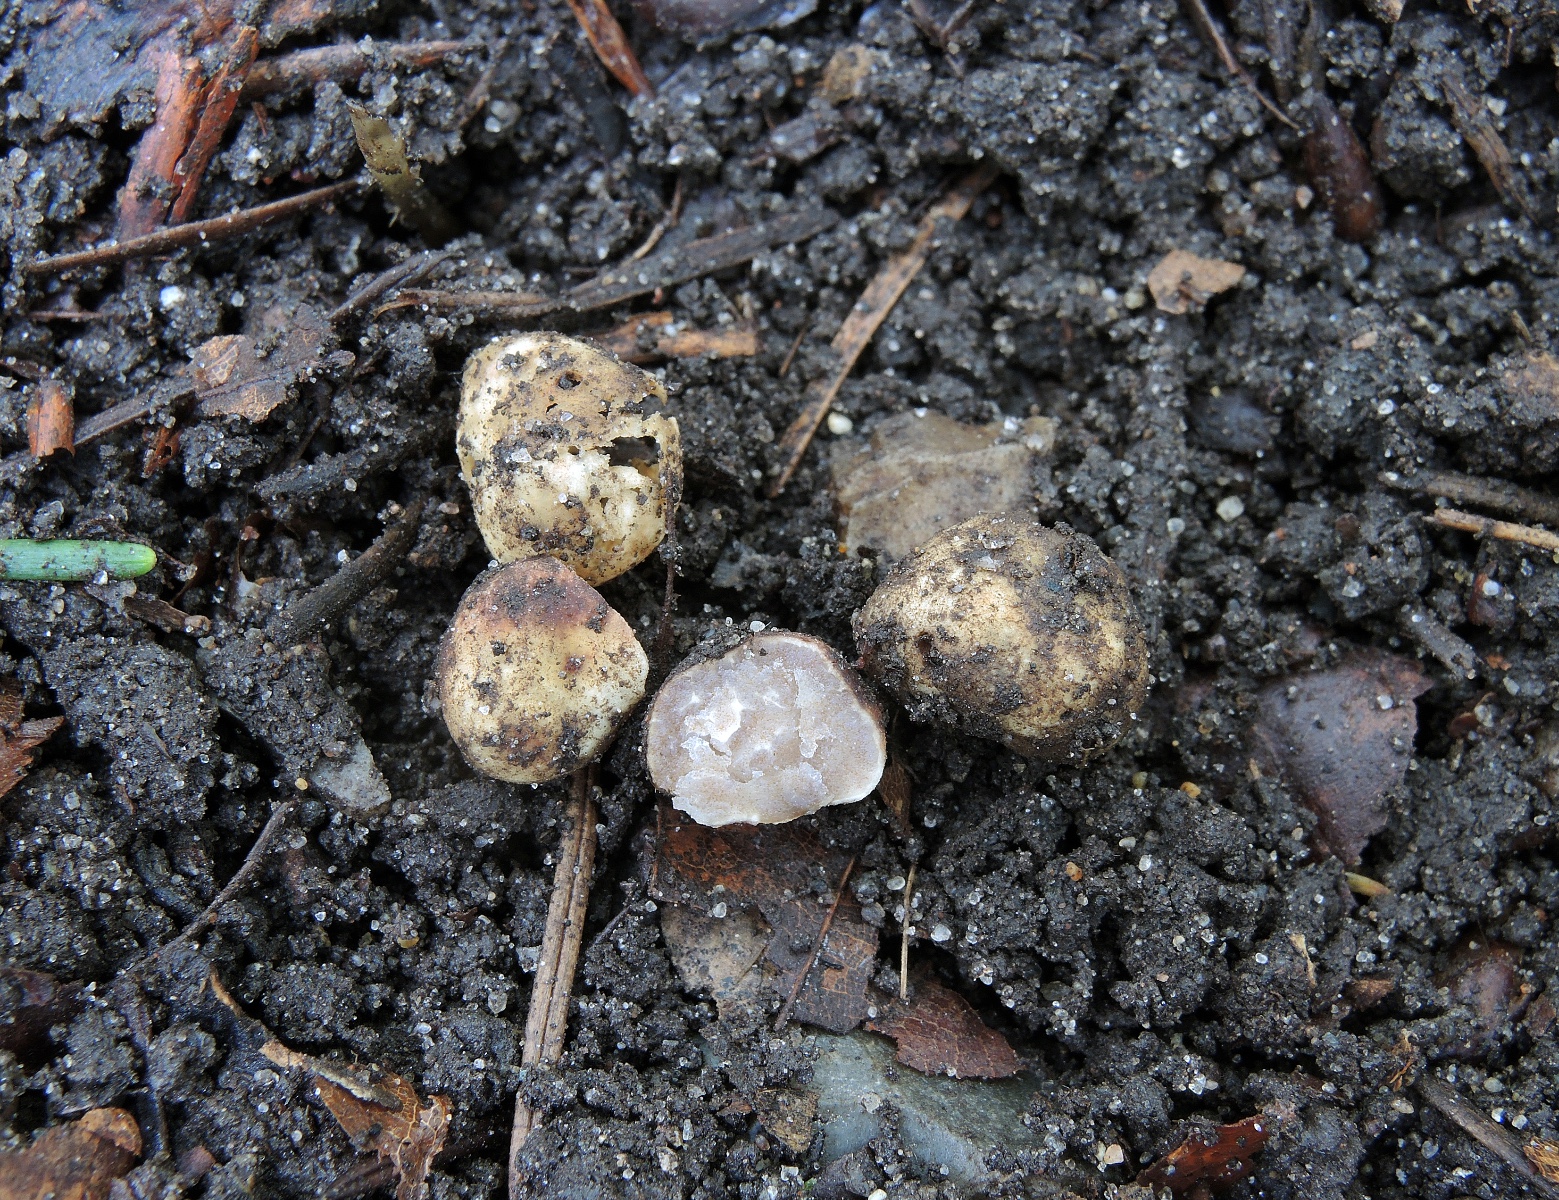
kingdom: Fungi
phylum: Ascomycota
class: Pezizomycetes
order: Pezizales
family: Tuberaceae
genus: Tuber
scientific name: Tuber maculatum
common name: plettet trøffel
